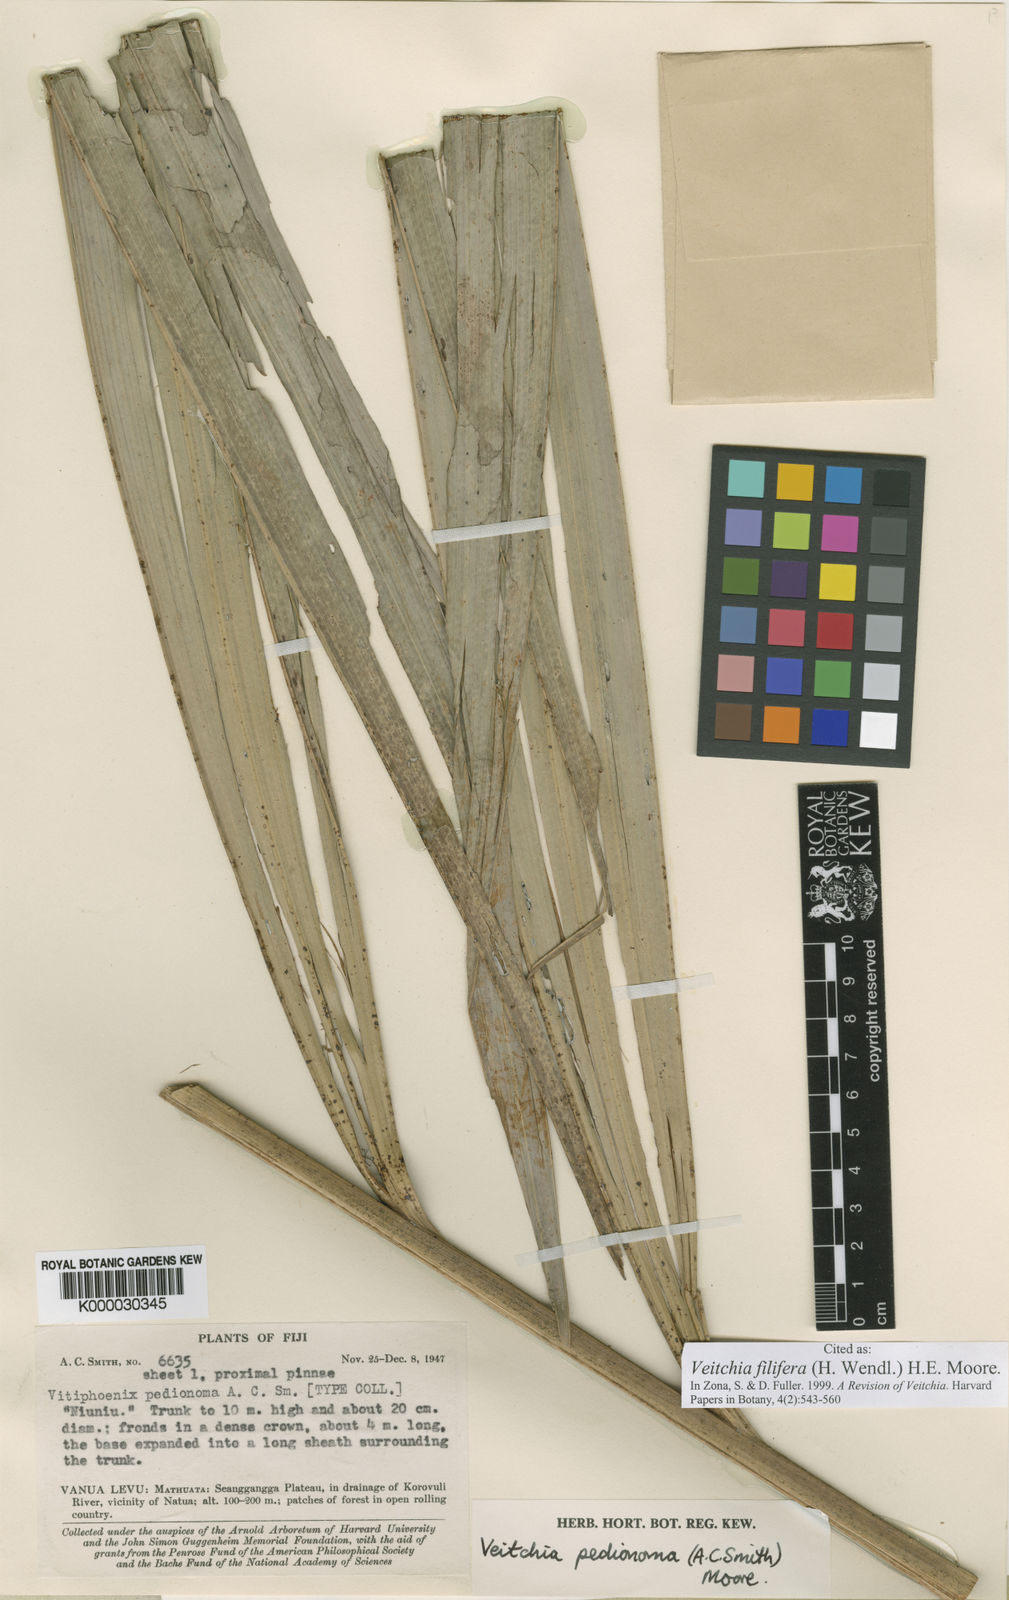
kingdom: Plantae
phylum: Tracheophyta
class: Liliopsida
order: Arecales
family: Arecaceae
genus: Veitchia
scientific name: Veitchia filifera
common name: Cagicake
